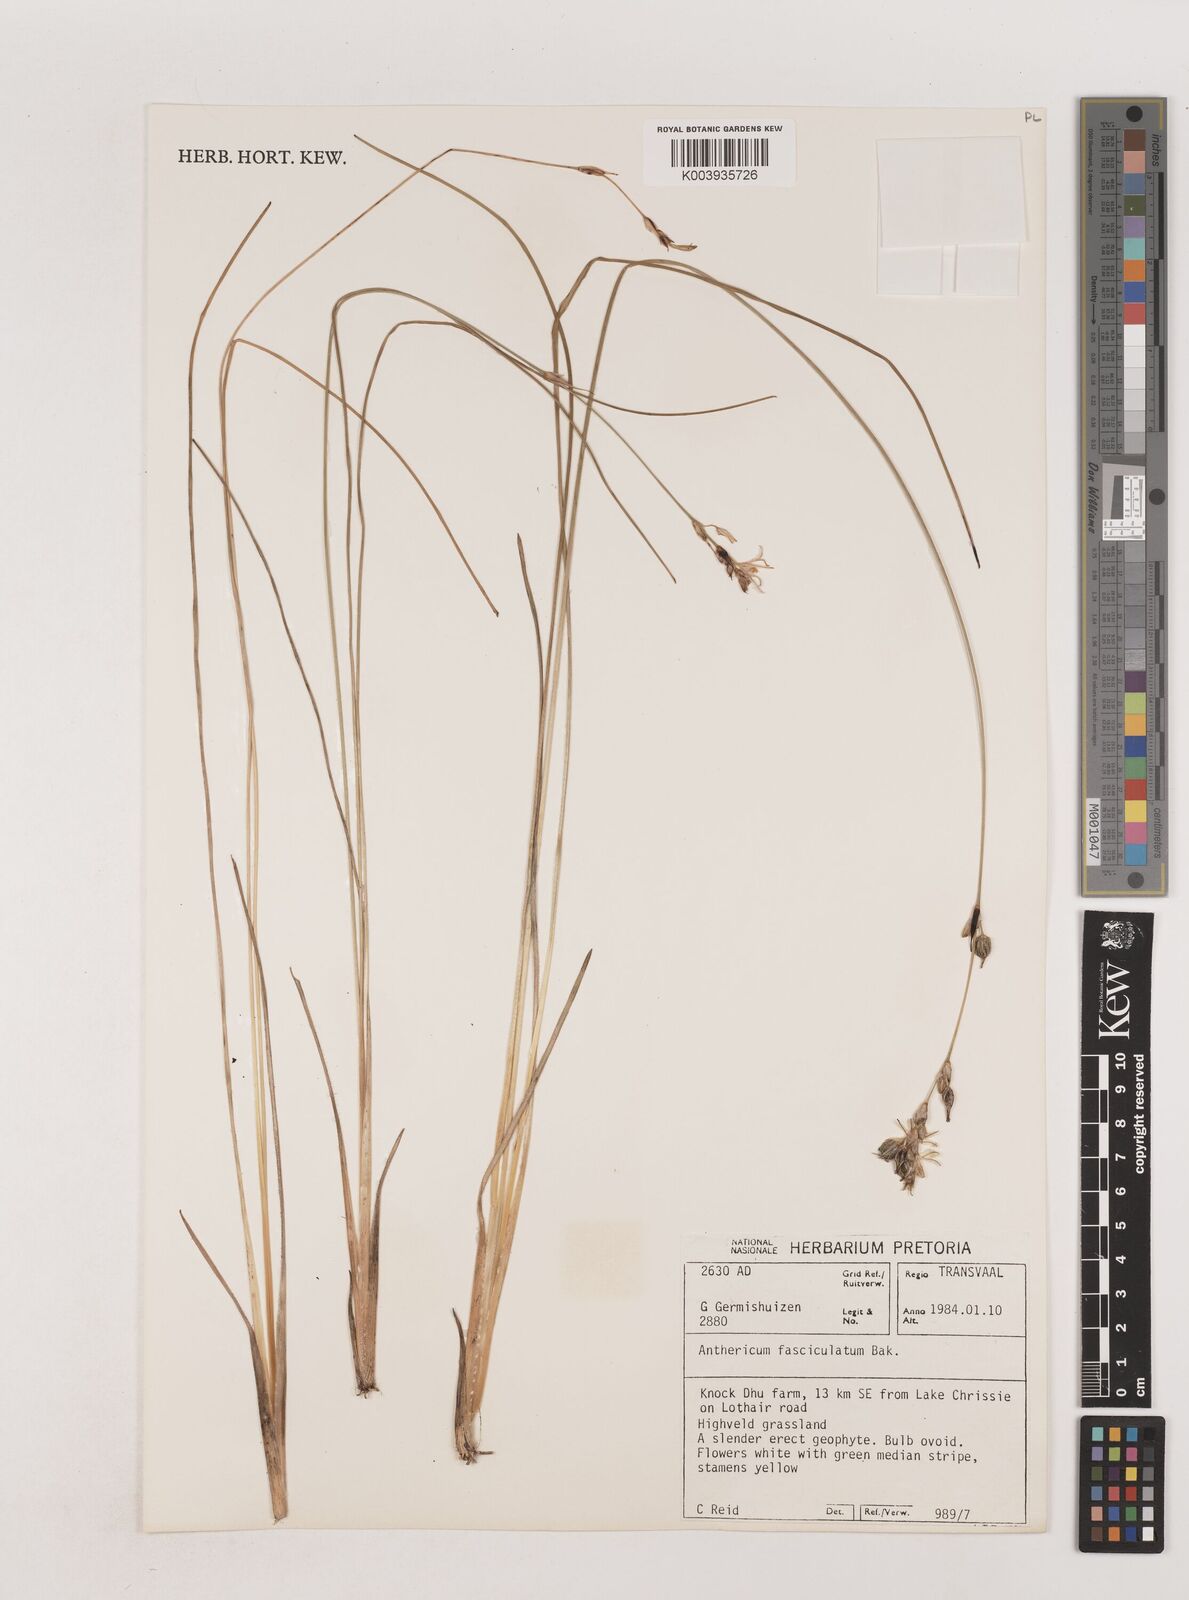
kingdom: Plantae
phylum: Tracheophyta
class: Liliopsida
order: Asparagales
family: Asparagaceae
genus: Chlorophytum
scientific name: Chlorophytum fasciculatum
